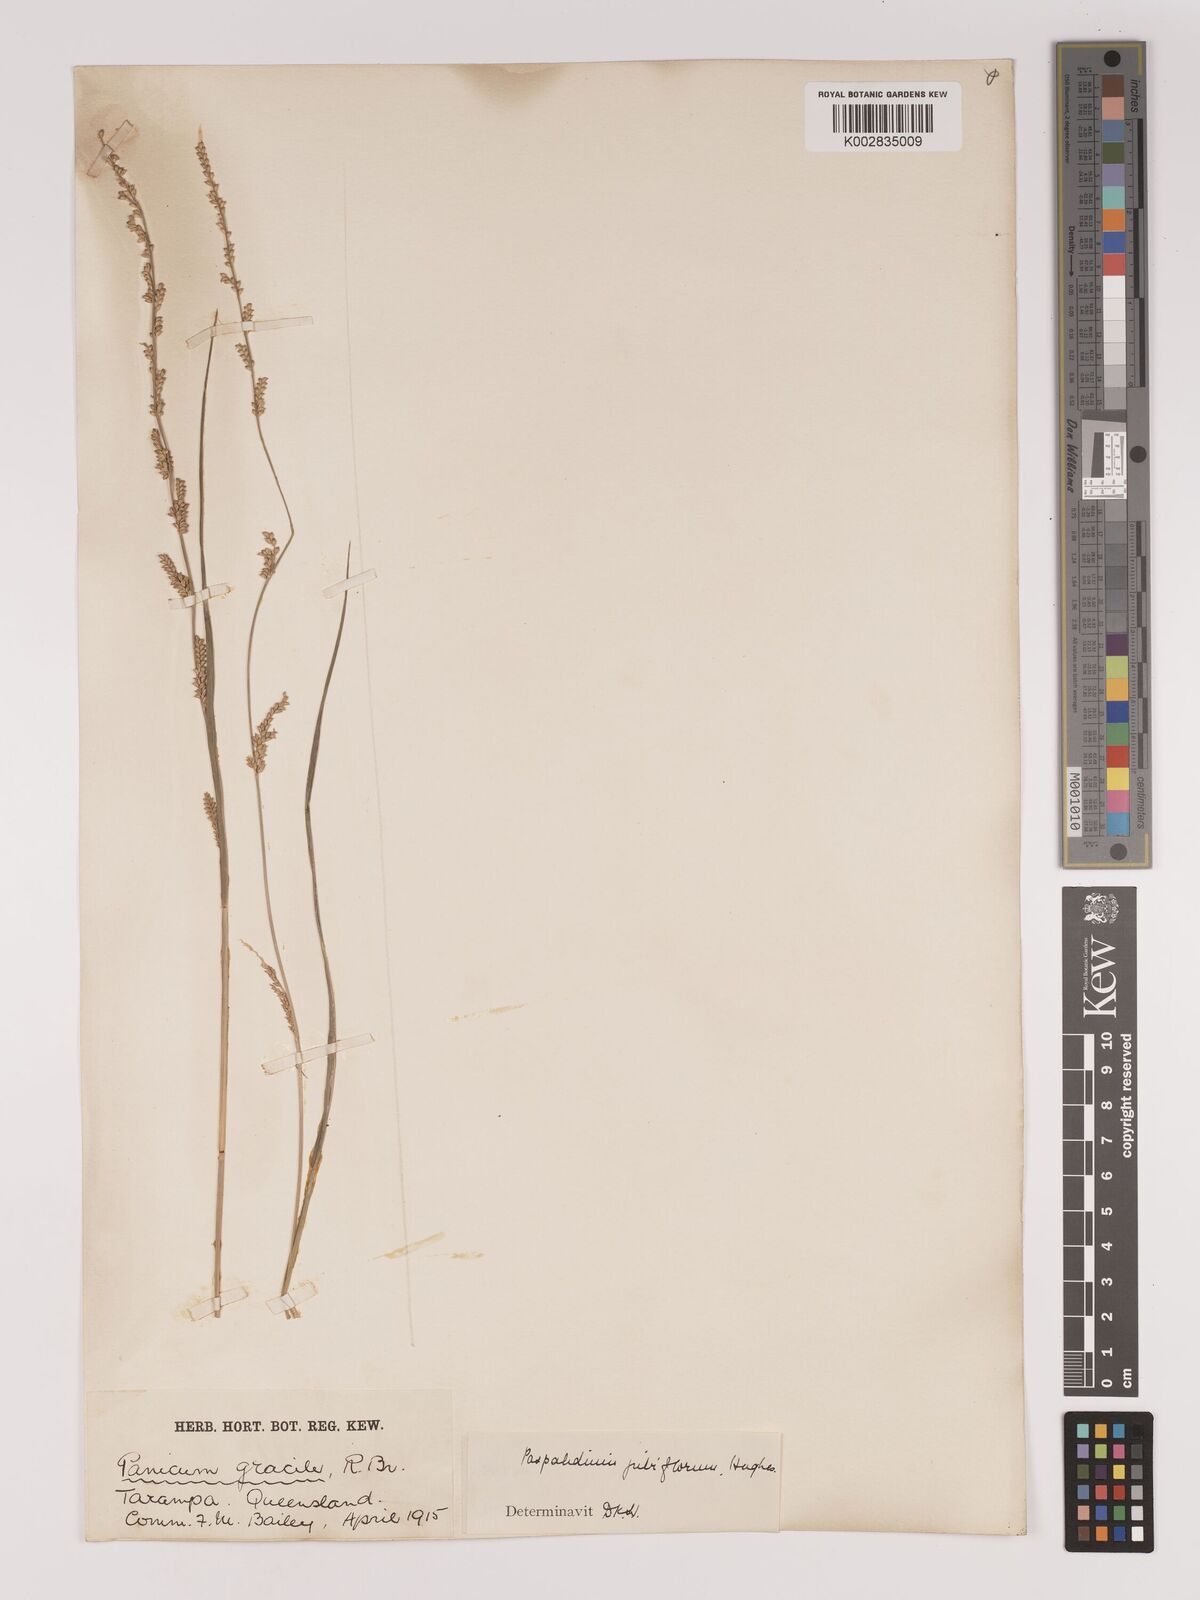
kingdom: Plantae
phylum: Tracheophyta
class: Liliopsida
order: Poales
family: Poaceae
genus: Setaria
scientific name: Setaria
